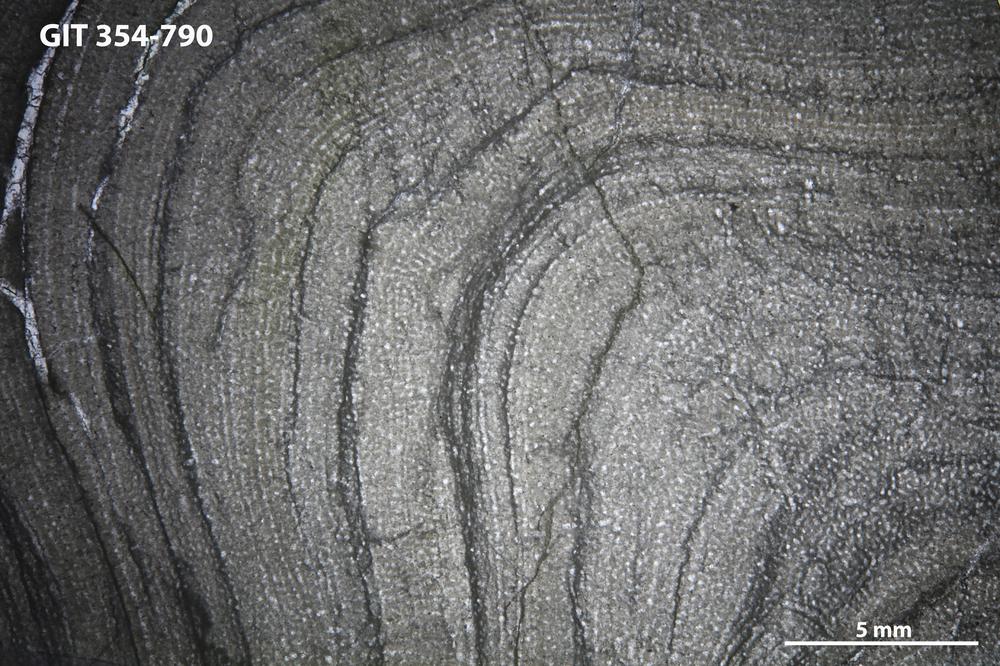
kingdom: Animalia
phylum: Porifera
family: Stromatoporidae
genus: Stromatopora
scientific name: Stromatopora
